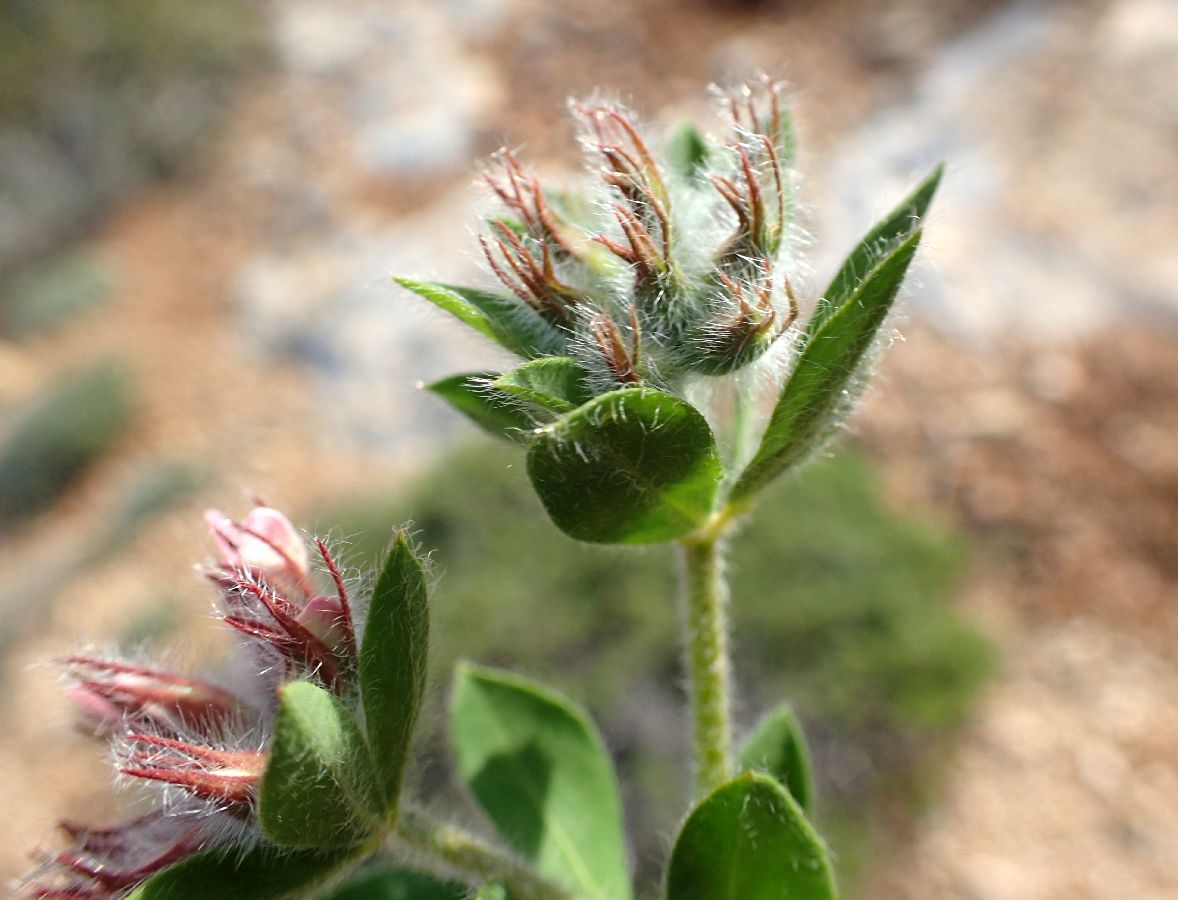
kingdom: Plantae
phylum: Tracheophyta
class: Magnoliopsida
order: Fabales
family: Fabaceae
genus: Lotus
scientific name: Lotus hirsutus
